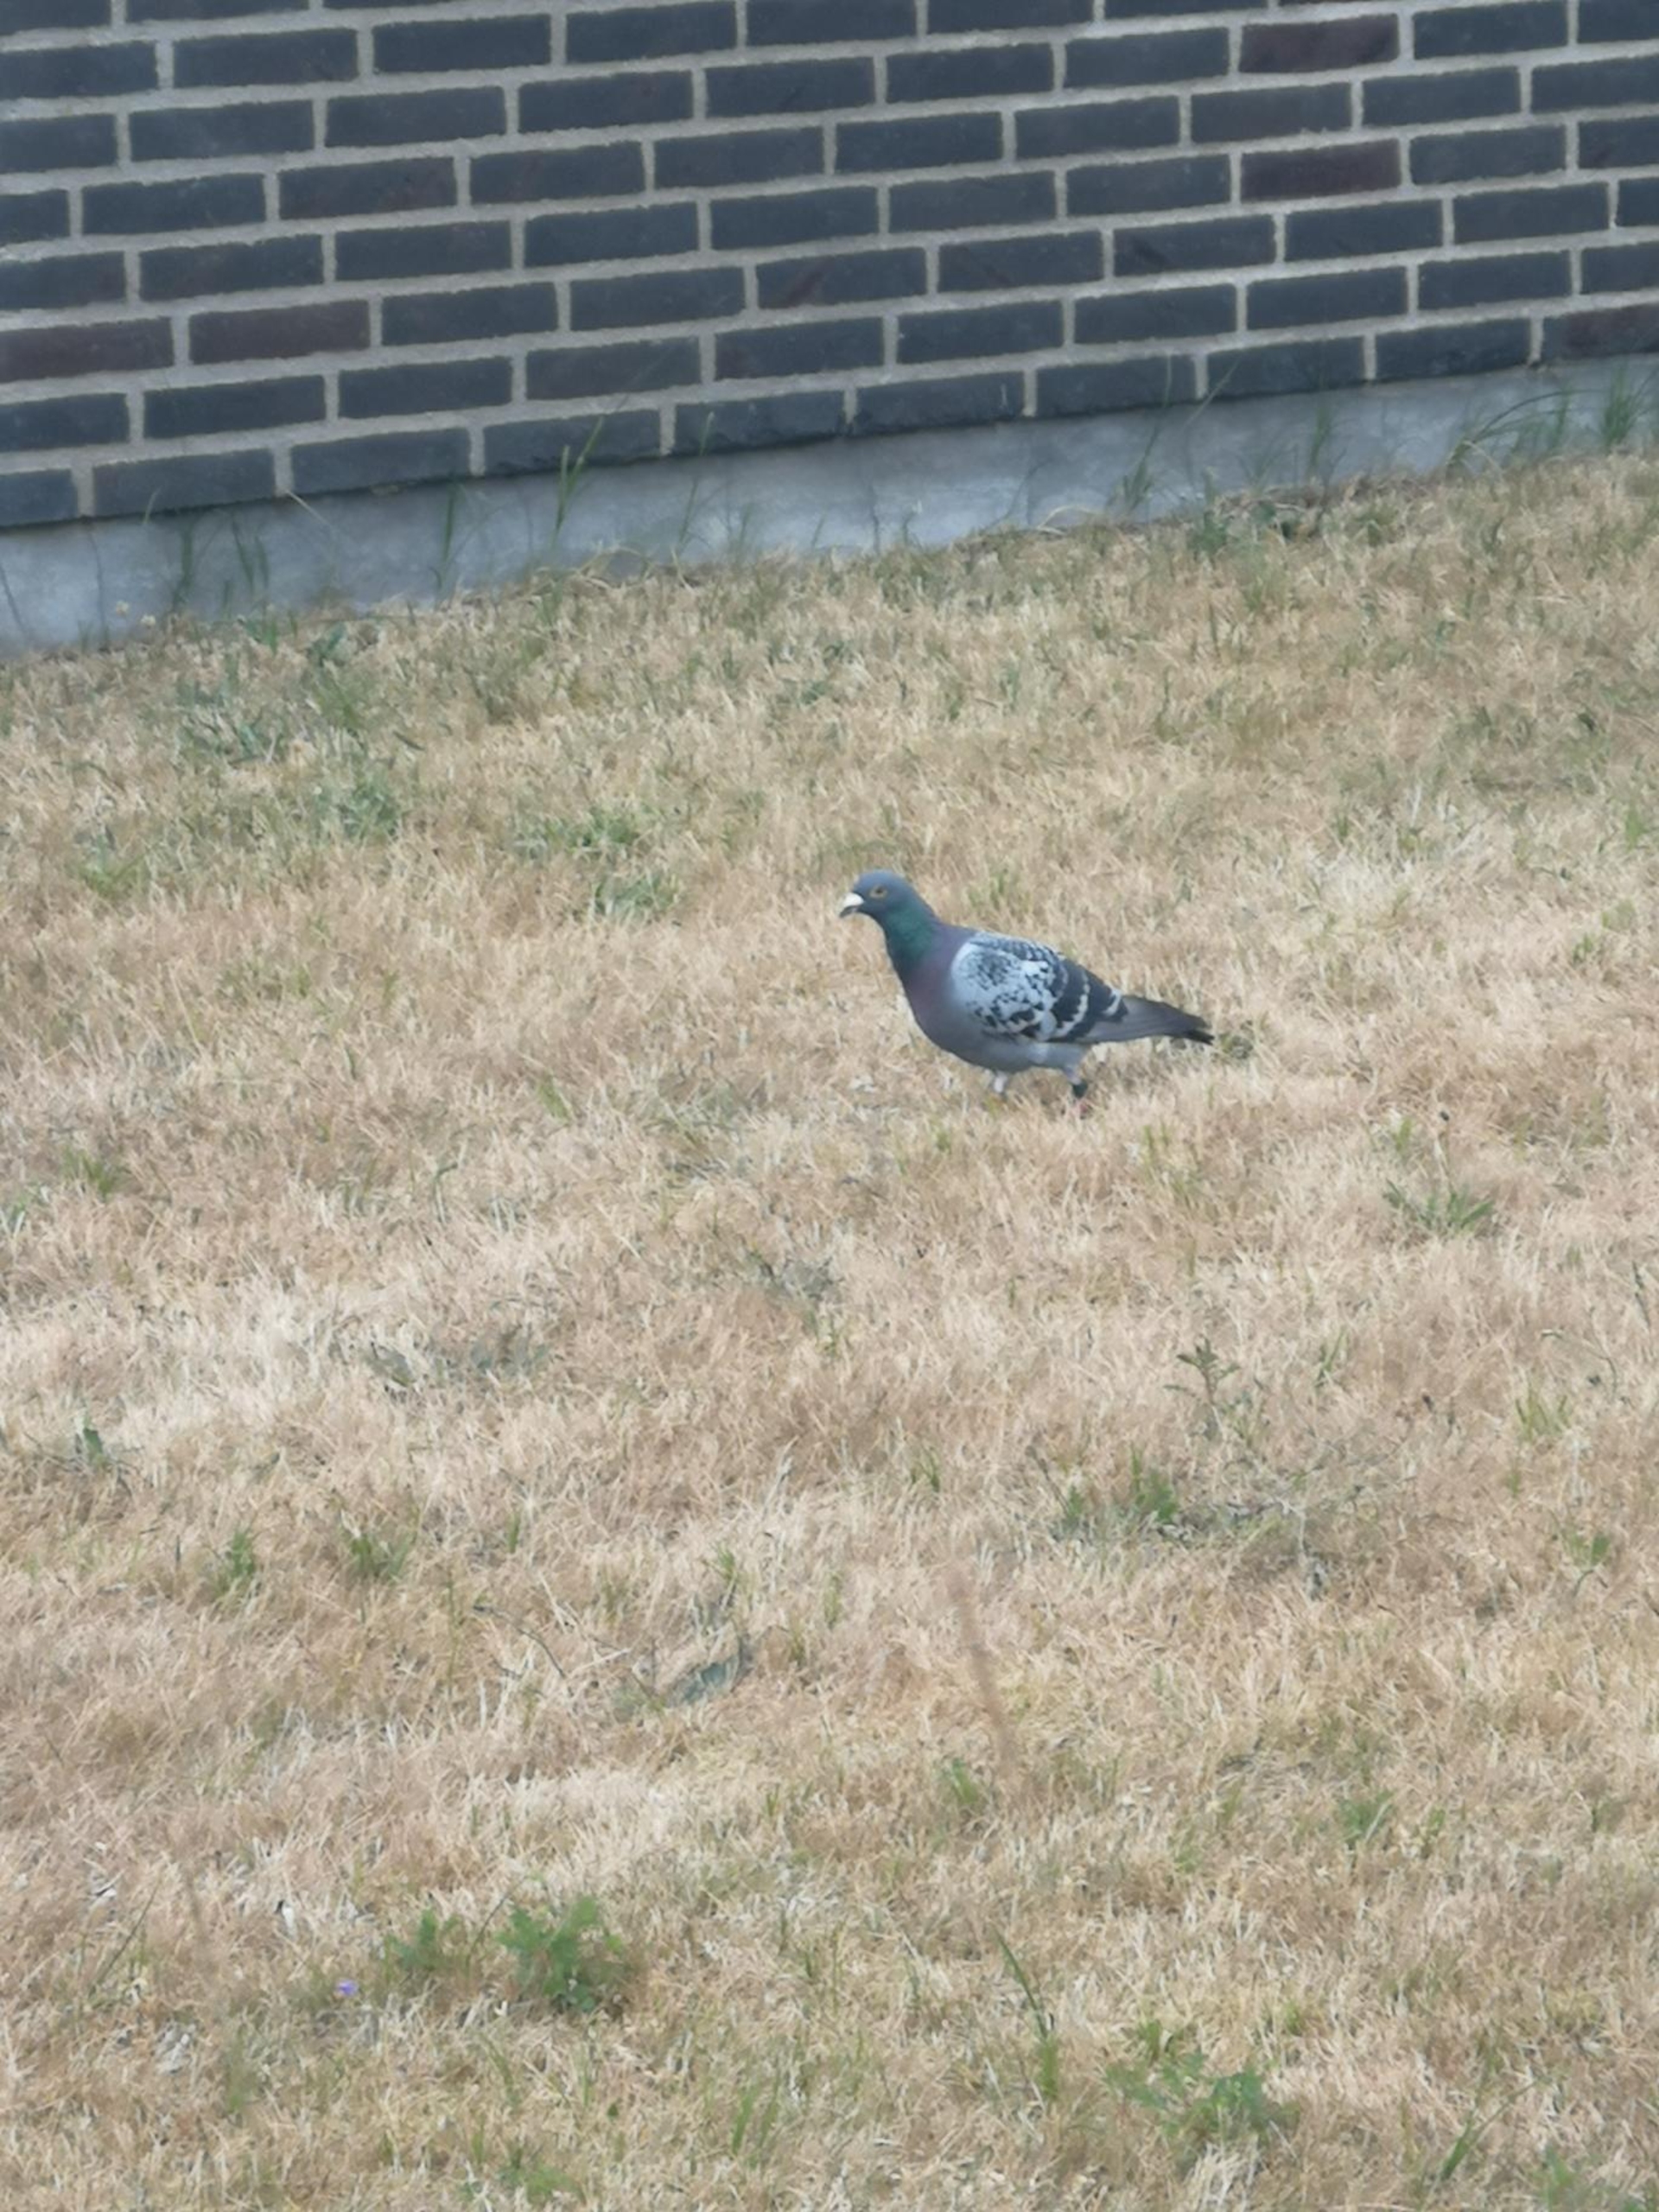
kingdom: Animalia
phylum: Chordata
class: Aves
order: Columbiformes
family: Columbidae
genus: Columba
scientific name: Columba livia
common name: Klippedue
